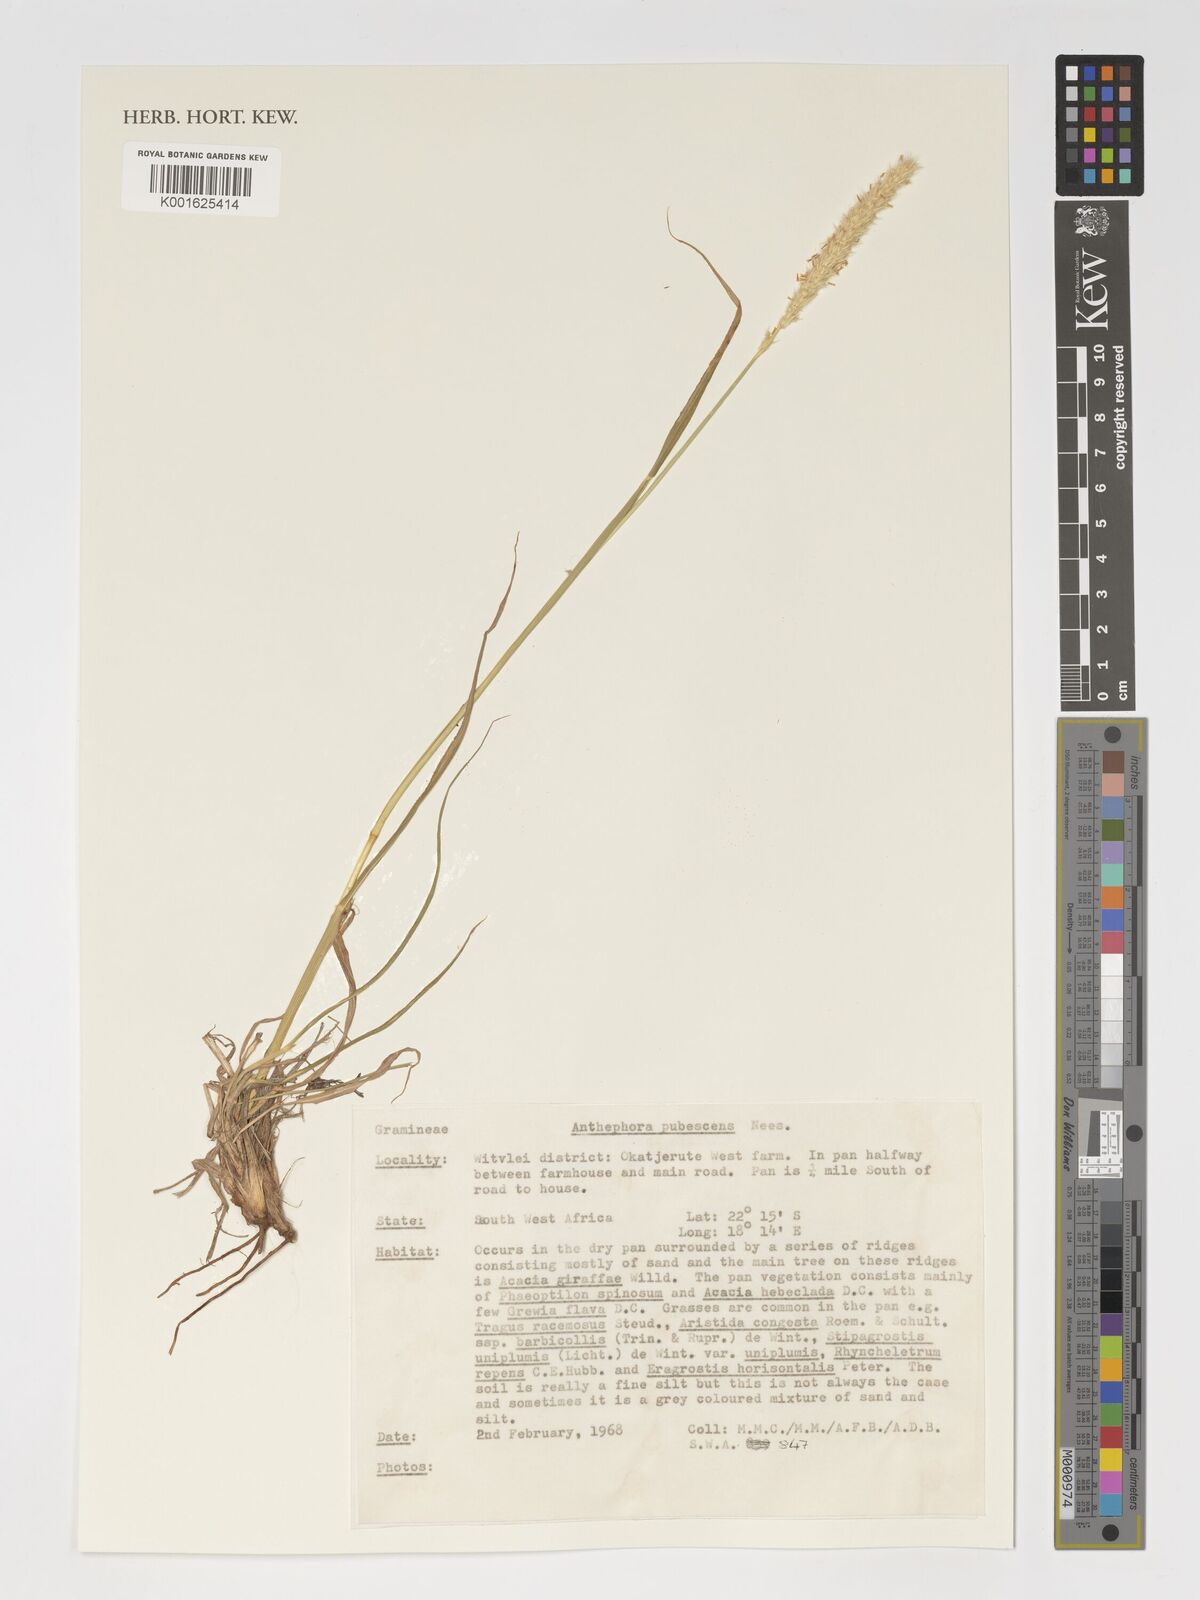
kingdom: Plantae
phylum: Tracheophyta
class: Liliopsida
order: Poales
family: Poaceae
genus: Anthephora
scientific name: Anthephora pubescens
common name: Wool grass
